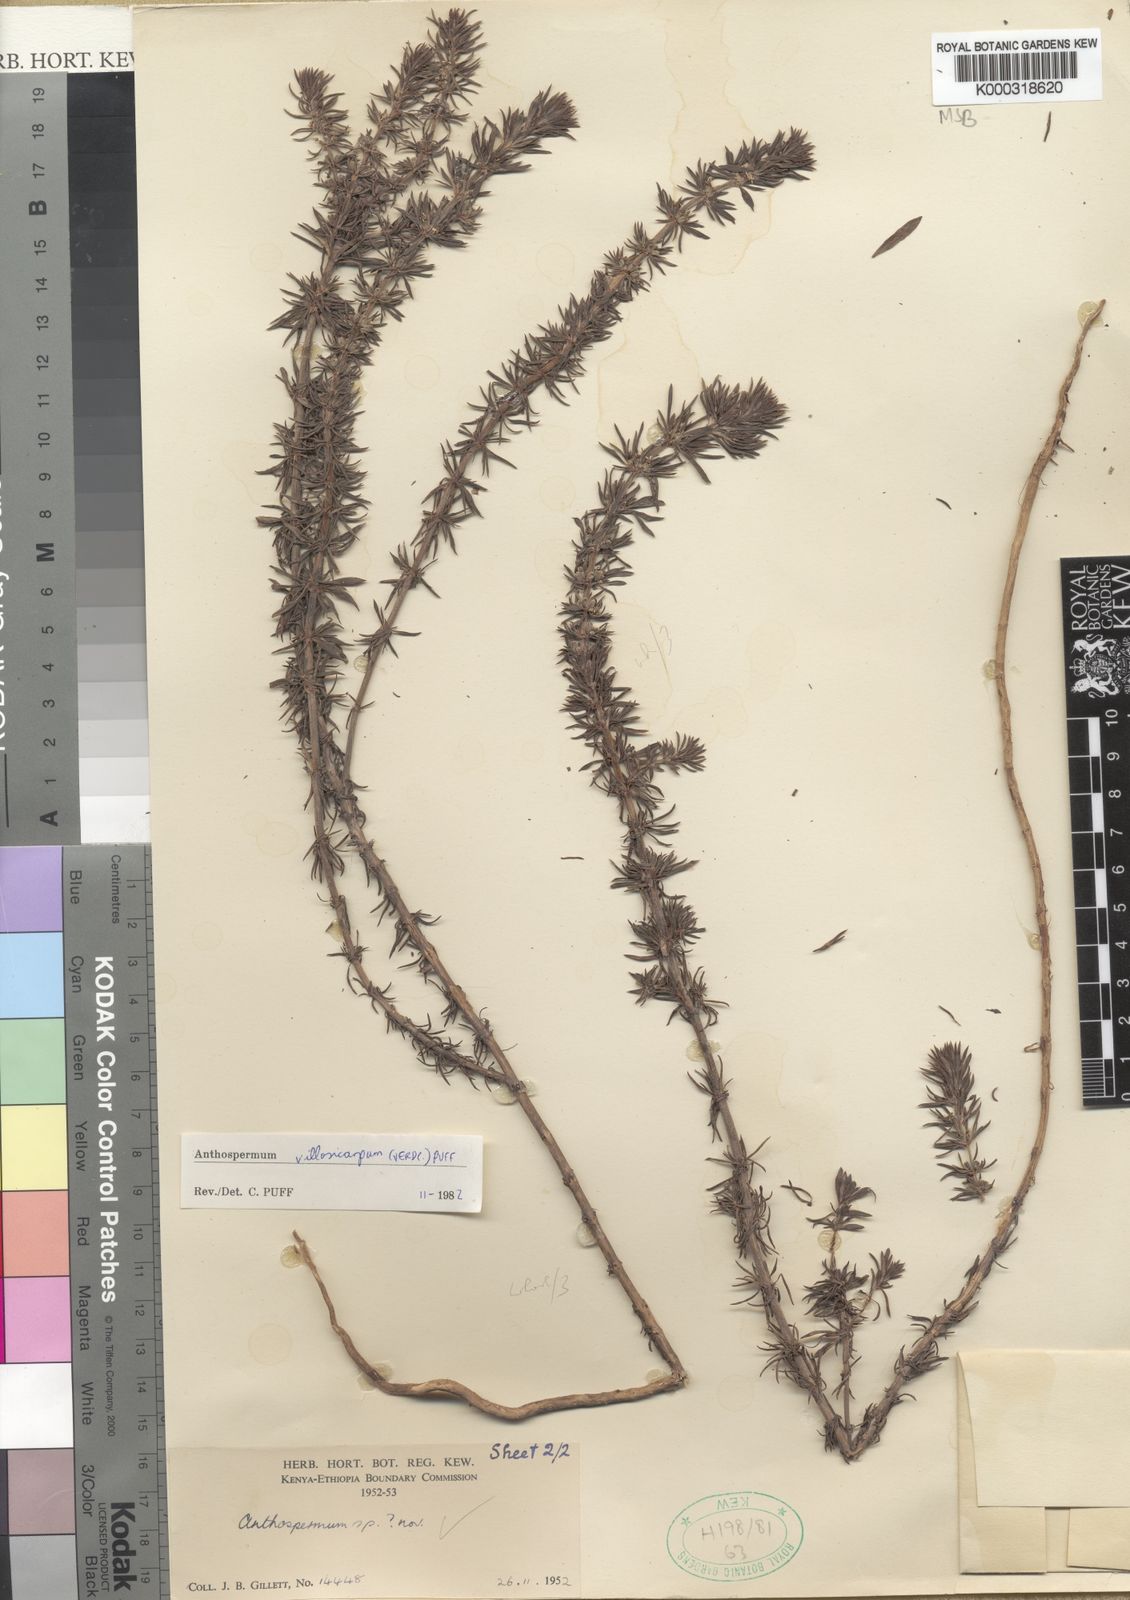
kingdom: Plantae
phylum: Tracheophyta
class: Magnoliopsida
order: Gentianales
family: Rubiaceae
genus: Canthium
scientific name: Canthium
